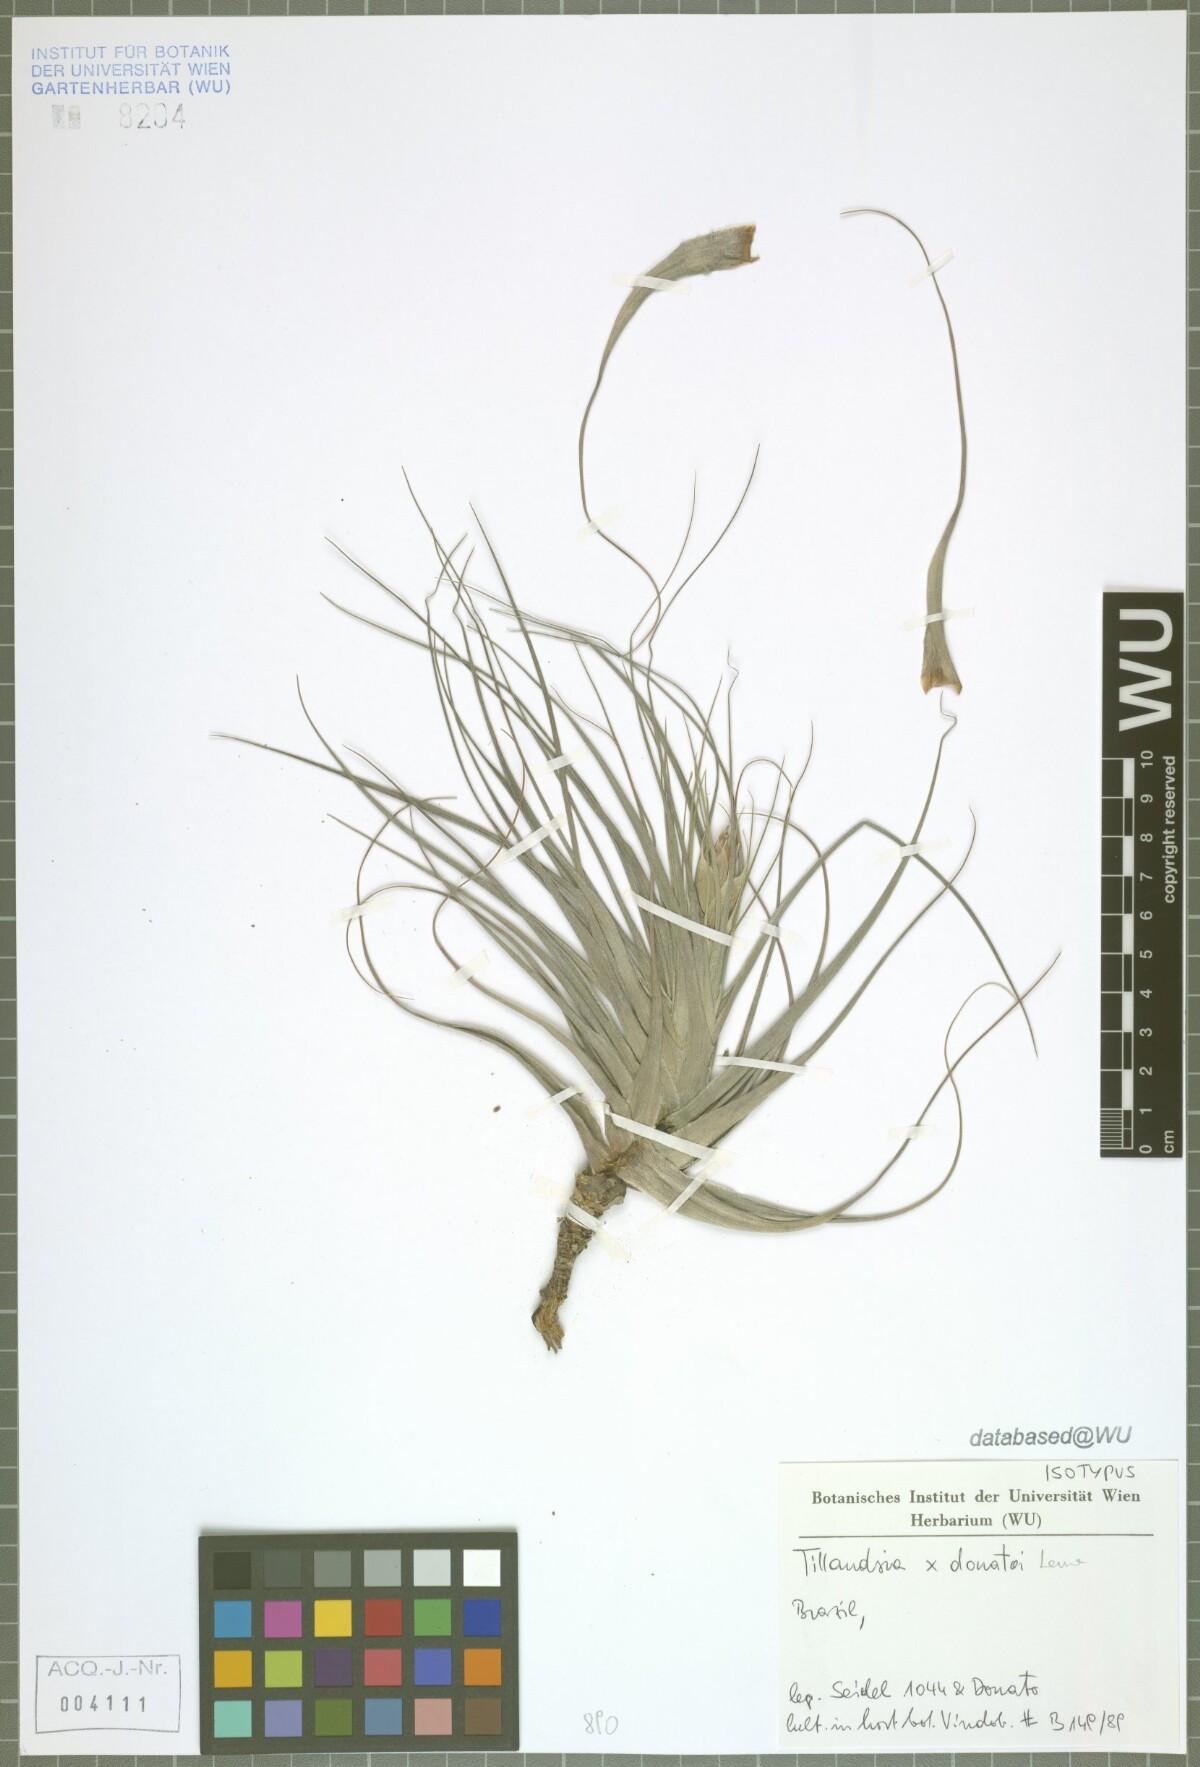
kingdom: Plantae
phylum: Tracheophyta
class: Liliopsida
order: Poales
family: Bromeliaceae
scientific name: Bromeliaceae
